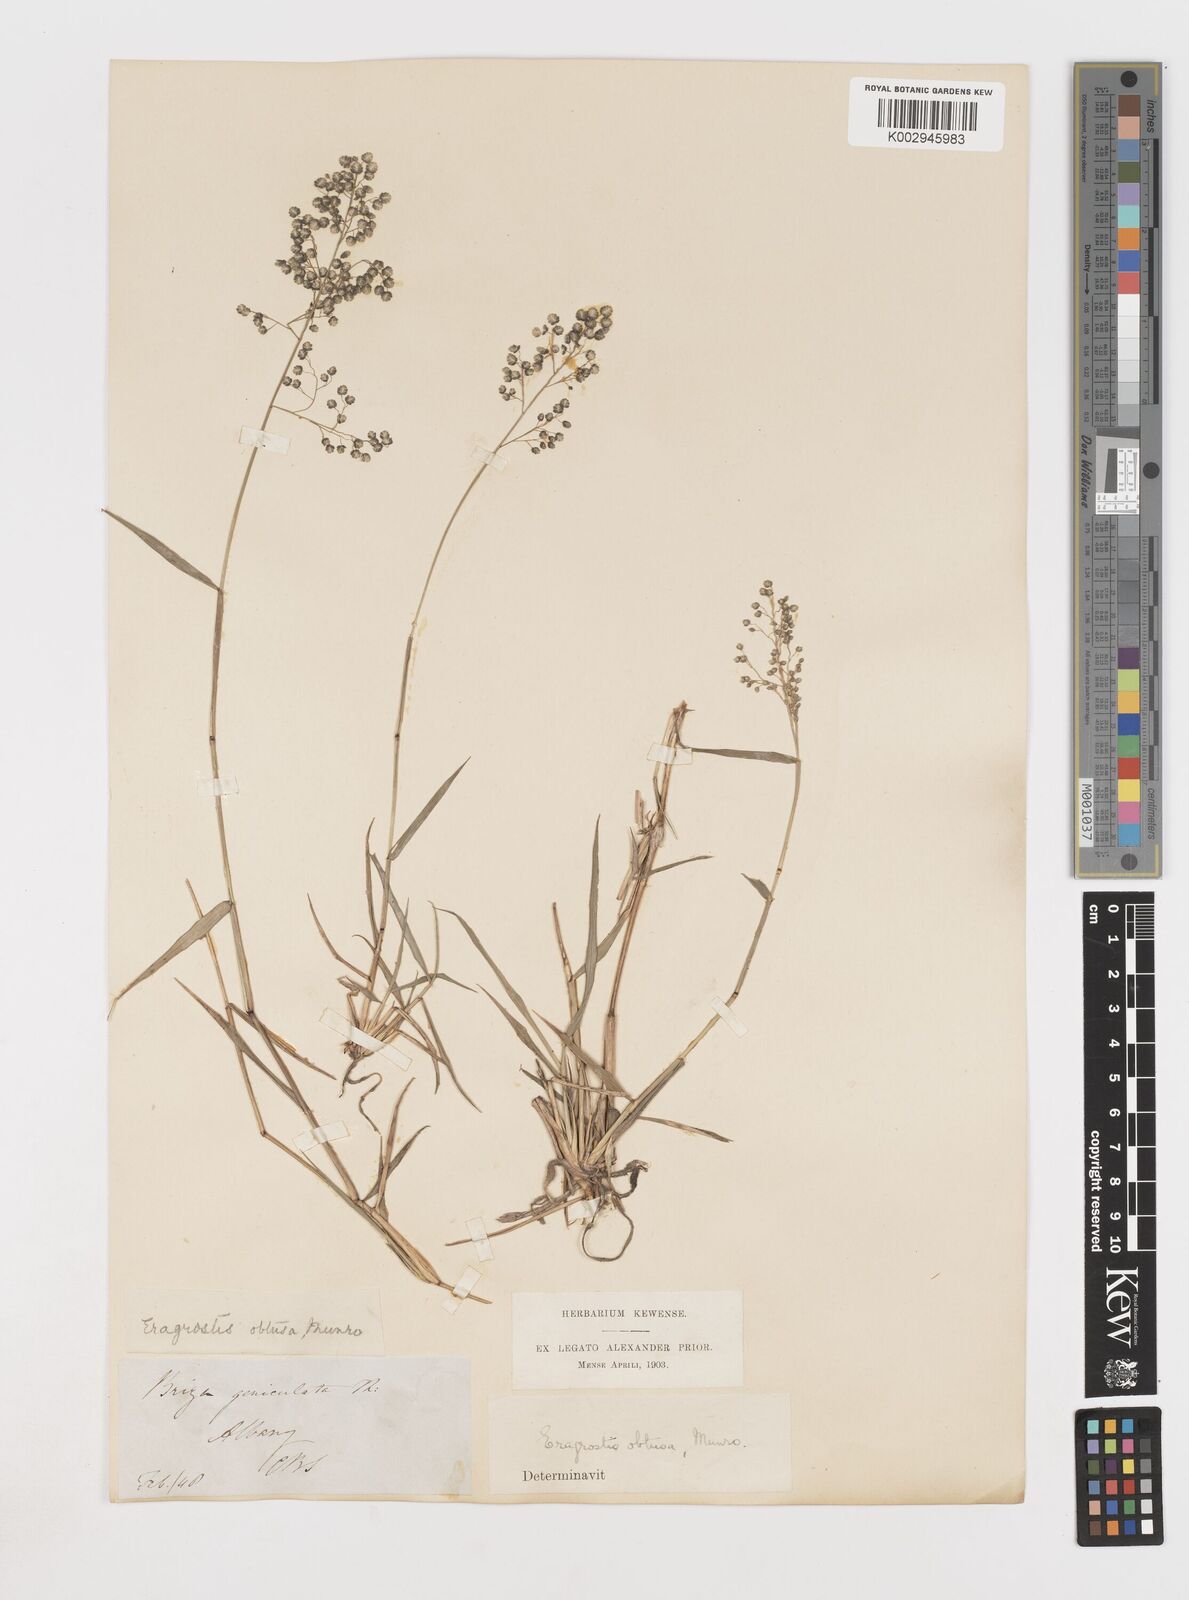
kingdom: Plantae
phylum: Tracheophyta
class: Liliopsida
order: Poales
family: Poaceae
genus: Eragrostis
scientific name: Eragrostis obtusa
